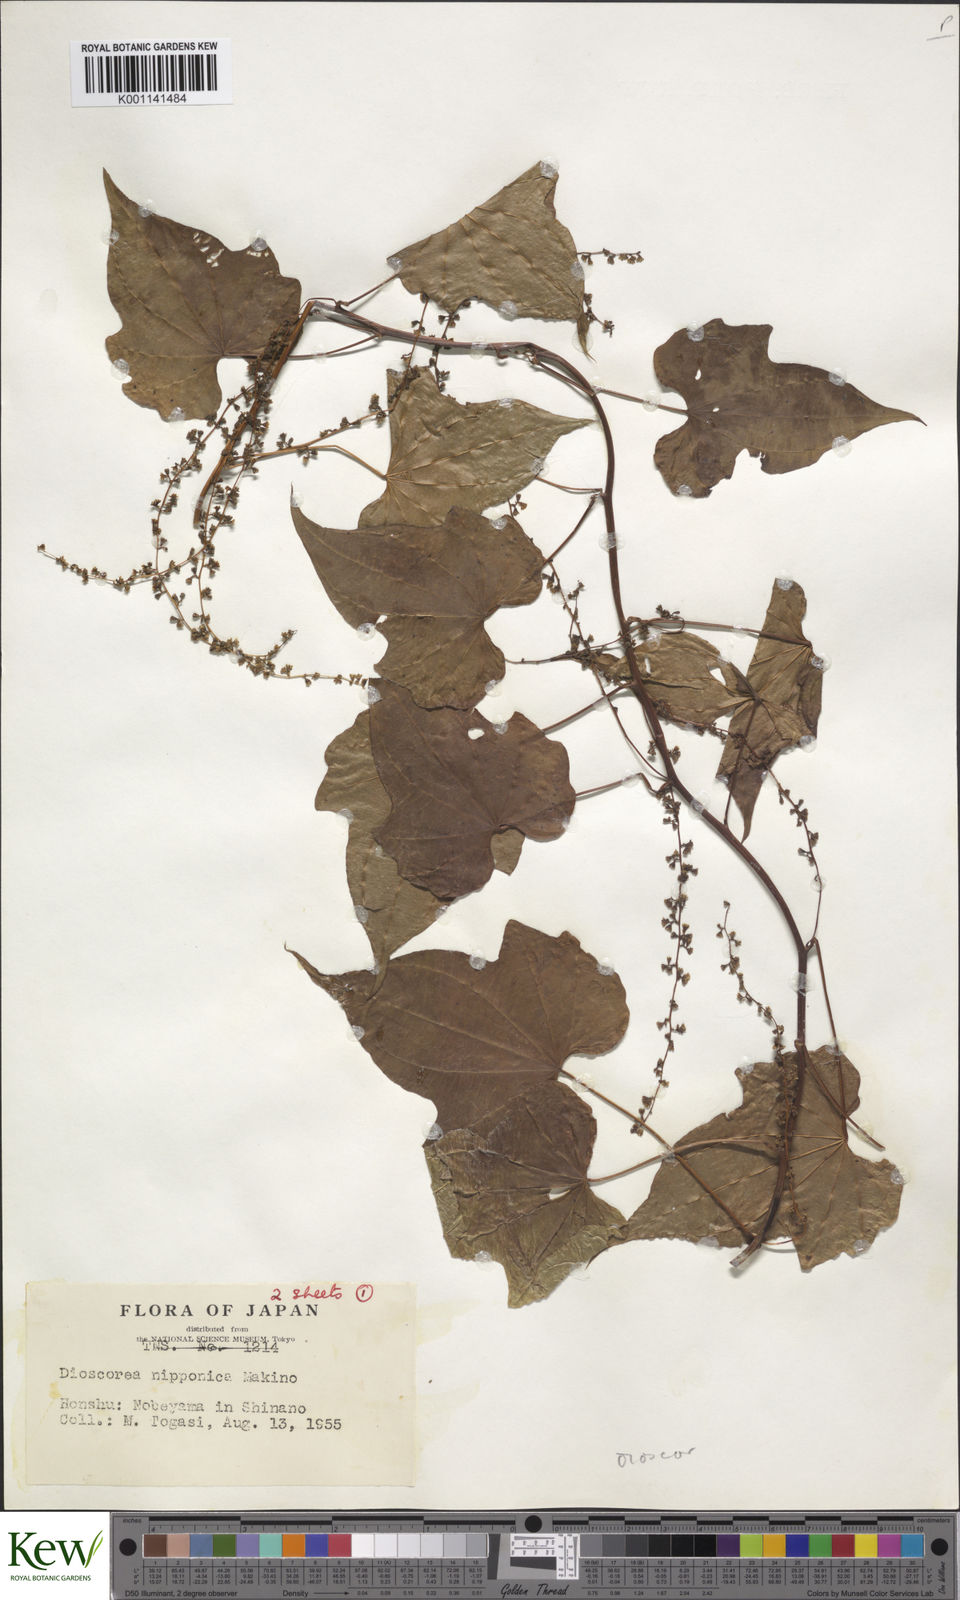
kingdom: Plantae
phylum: Tracheophyta
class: Liliopsida
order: Dioscoreales
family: Dioscoreaceae
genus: Dioscorea
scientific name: Dioscorea nipponica
